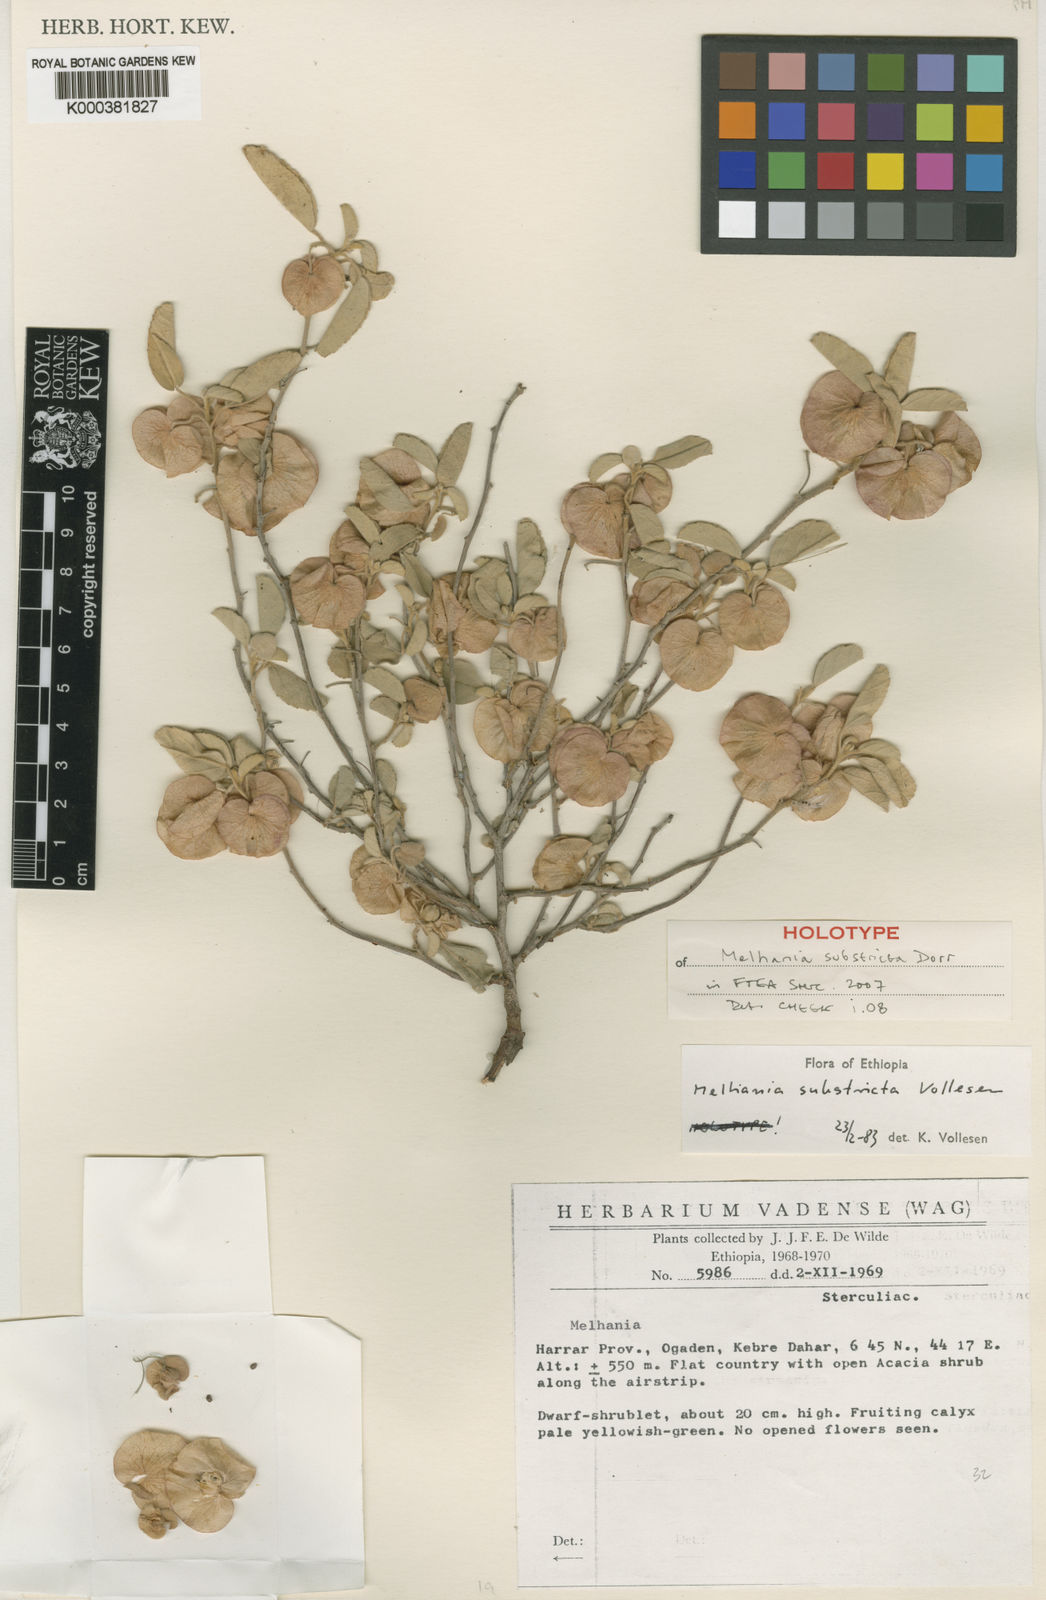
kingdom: Plantae
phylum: Tracheophyta
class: Magnoliopsida
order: Malvales
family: Malvaceae
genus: Melhania
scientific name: Melhania substricta
